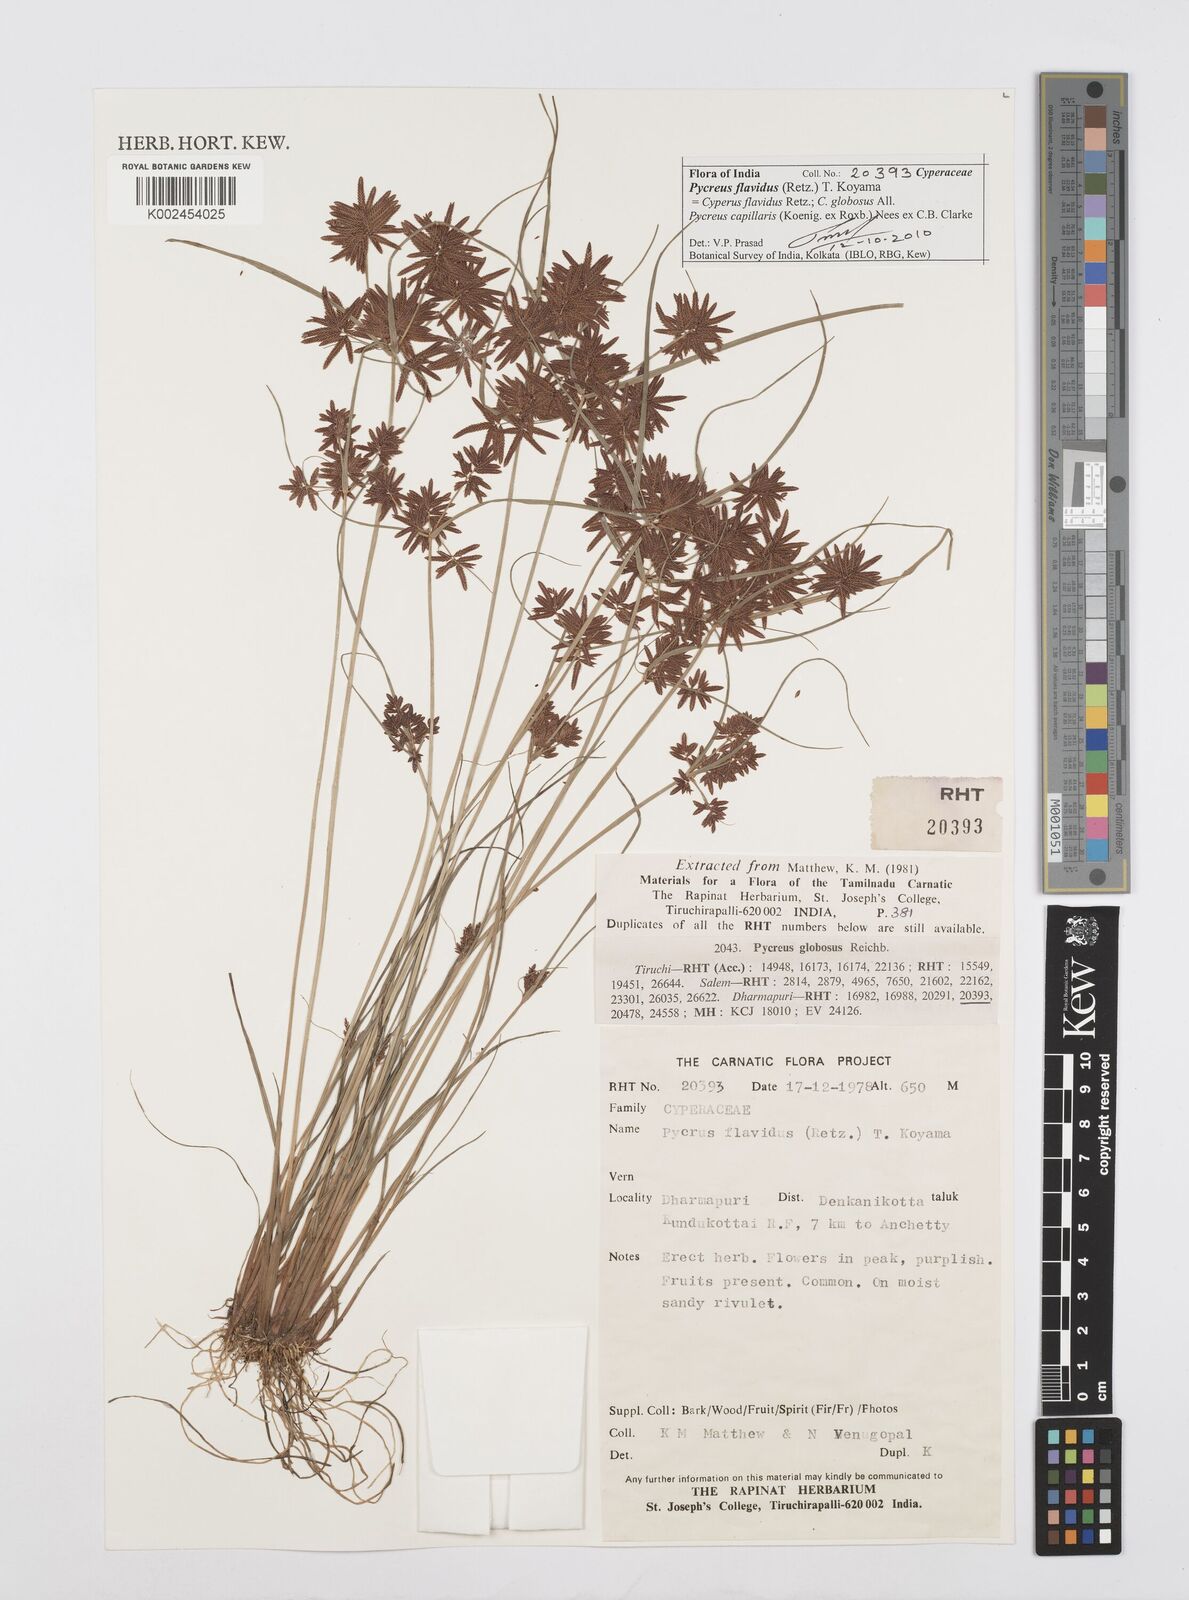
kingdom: Plantae
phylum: Tracheophyta
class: Liliopsida
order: Poales
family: Cyperaceae
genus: Cyperus
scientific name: Cyperus flavidus
